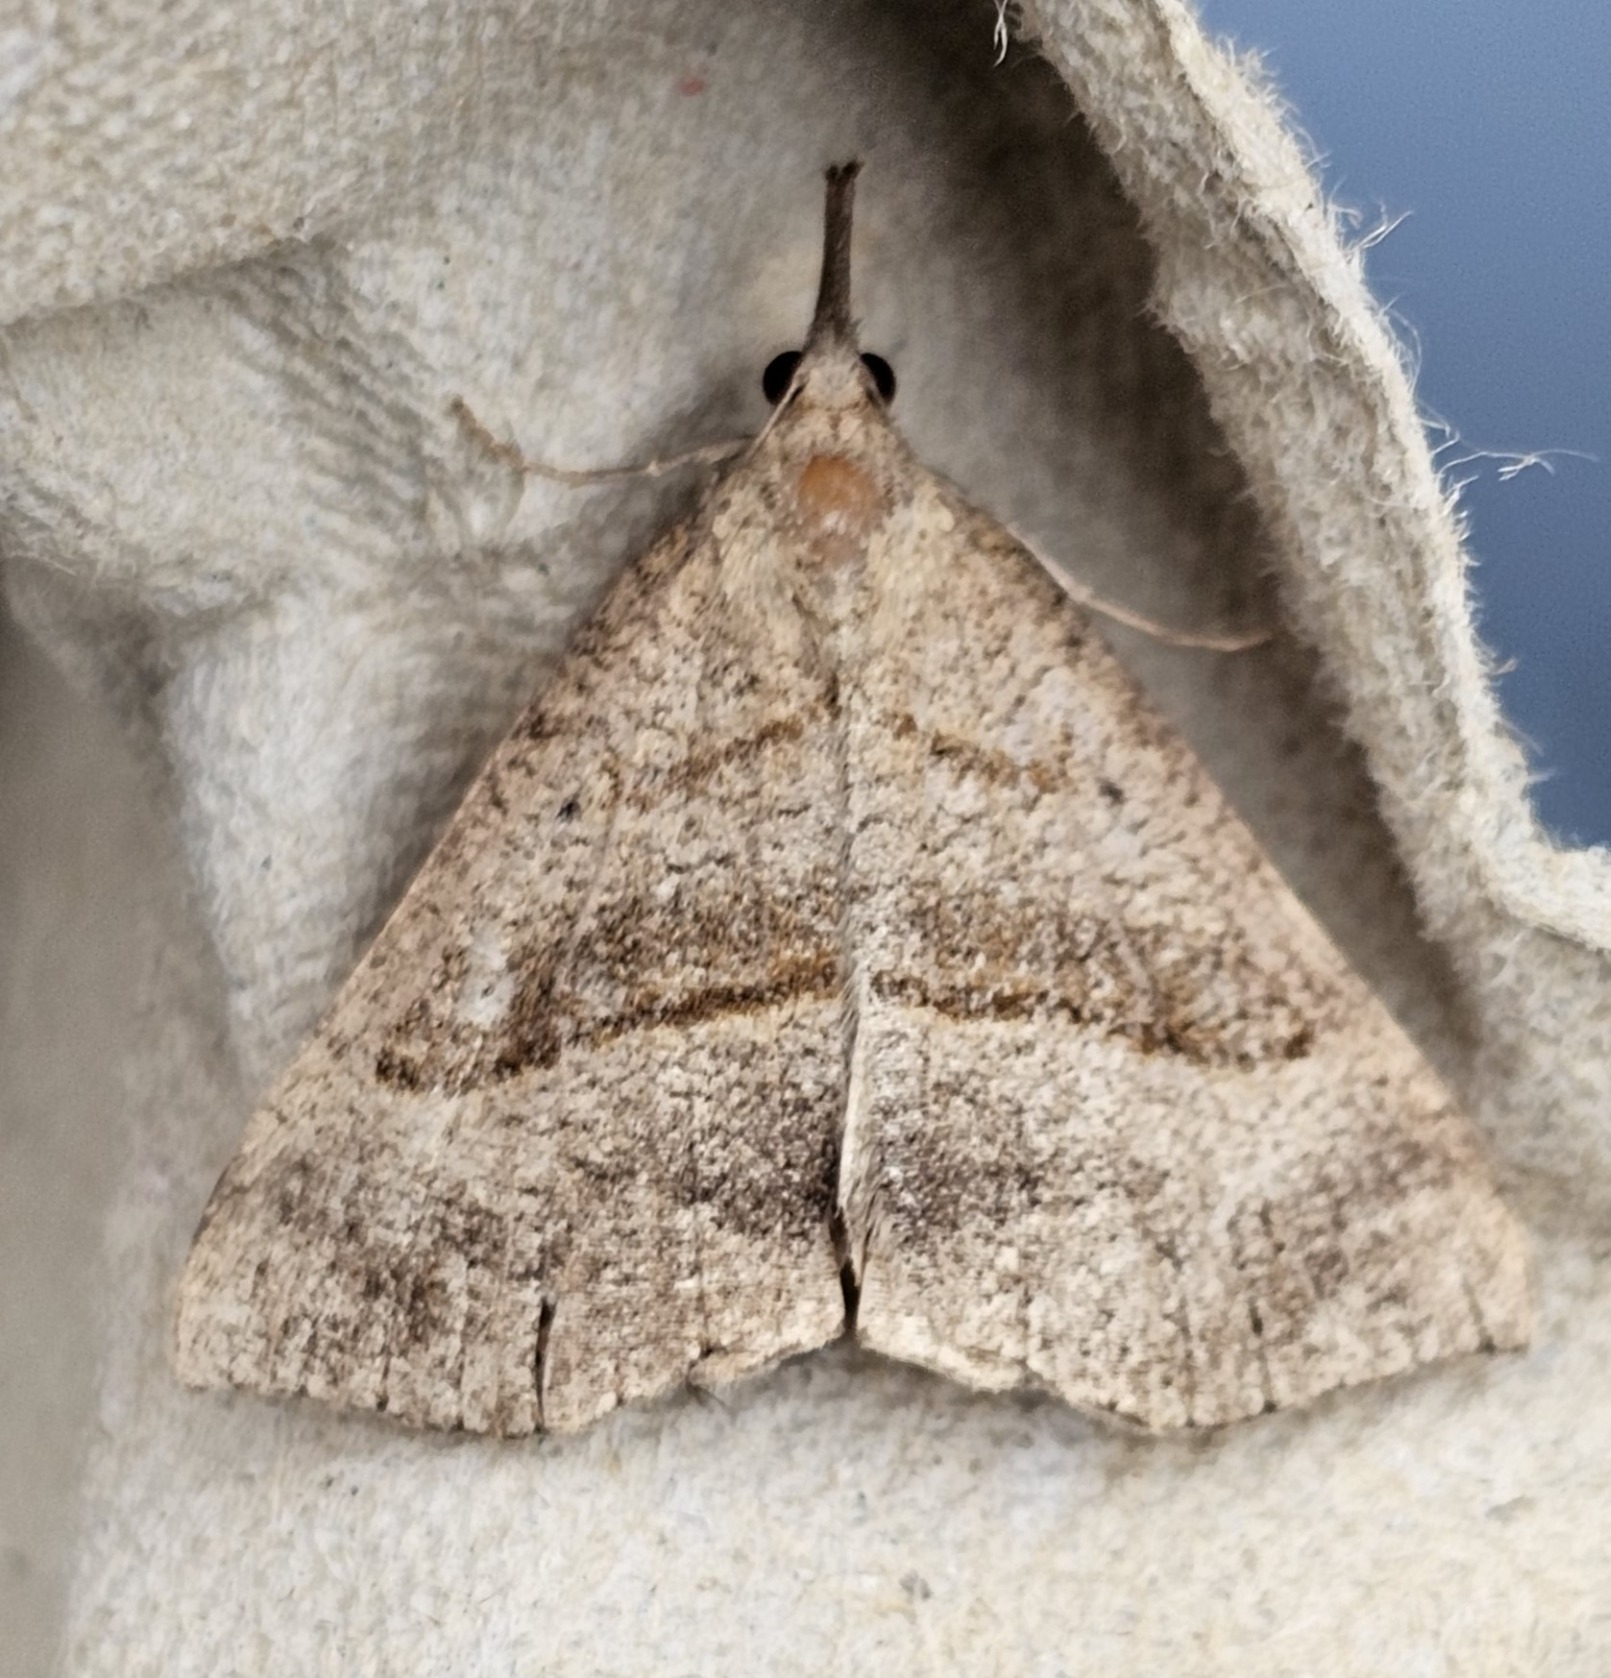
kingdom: Animalia
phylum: Arthropoda
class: Insecta
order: Lepidoptera
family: Erebidae
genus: Hypena
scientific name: Hypena proboscidalis
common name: Snudeugle
